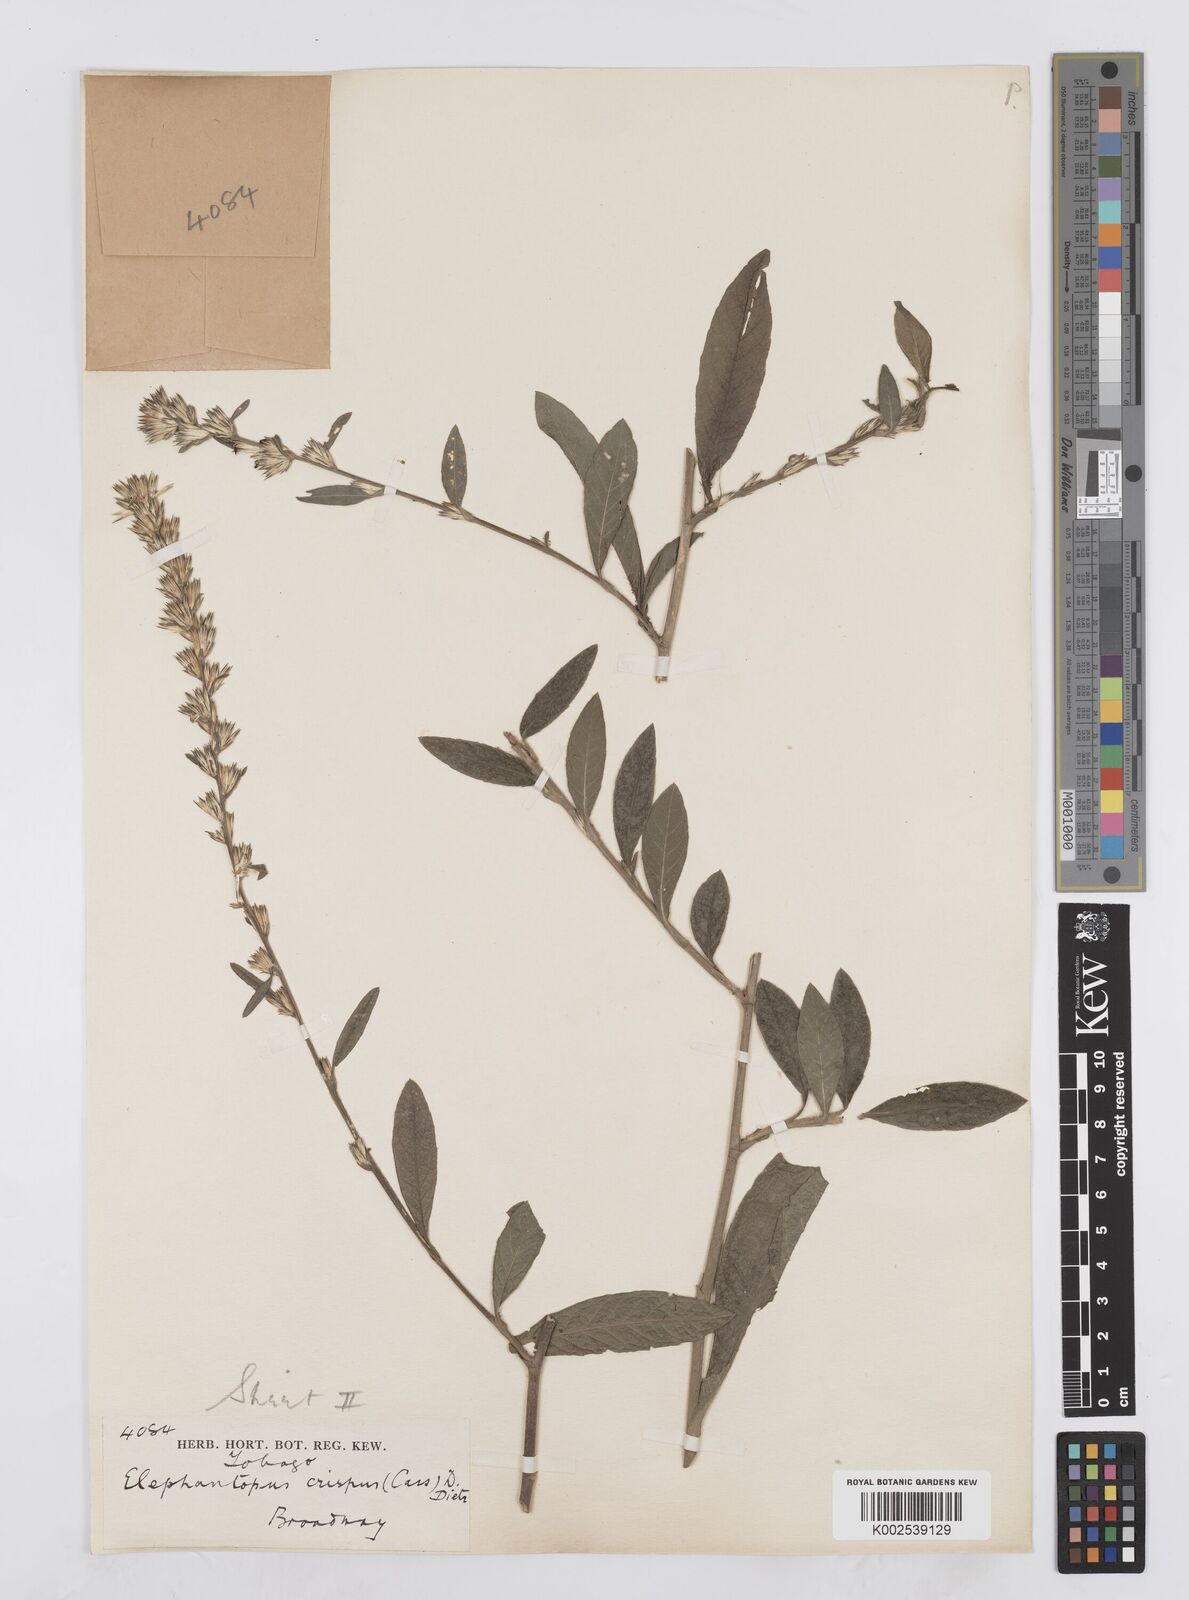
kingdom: Plantae
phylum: Tracheophyta
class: Magnoliopsida
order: Asterales
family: Asteraceae
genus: Pseudelephantopus
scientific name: Pseudelephantopus spiralis
